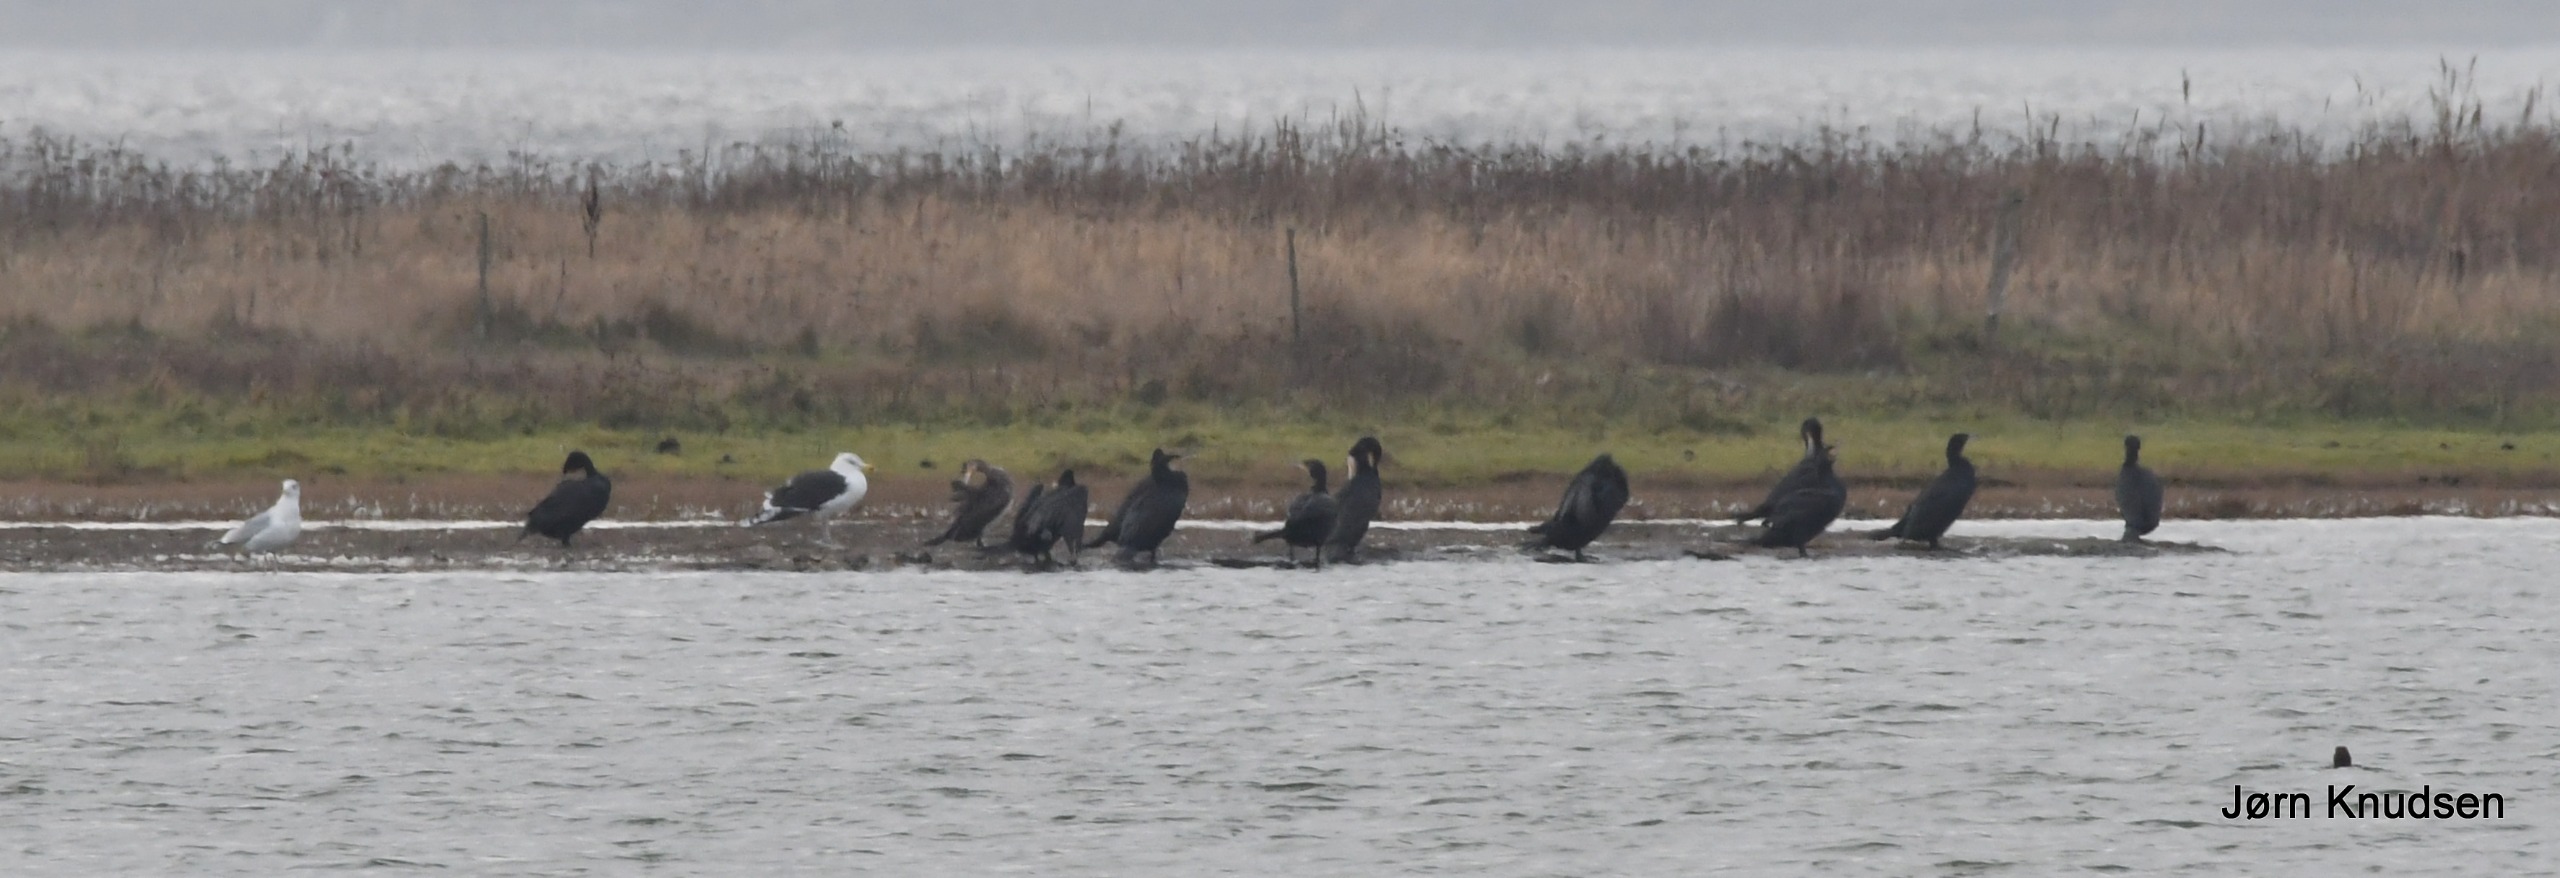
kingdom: Animalia
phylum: Chordata
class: Aves
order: Suliformes
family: Phalacrocoracidae
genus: Phalacrocorax
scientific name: Phalacrocorax carbo
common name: Skarv
